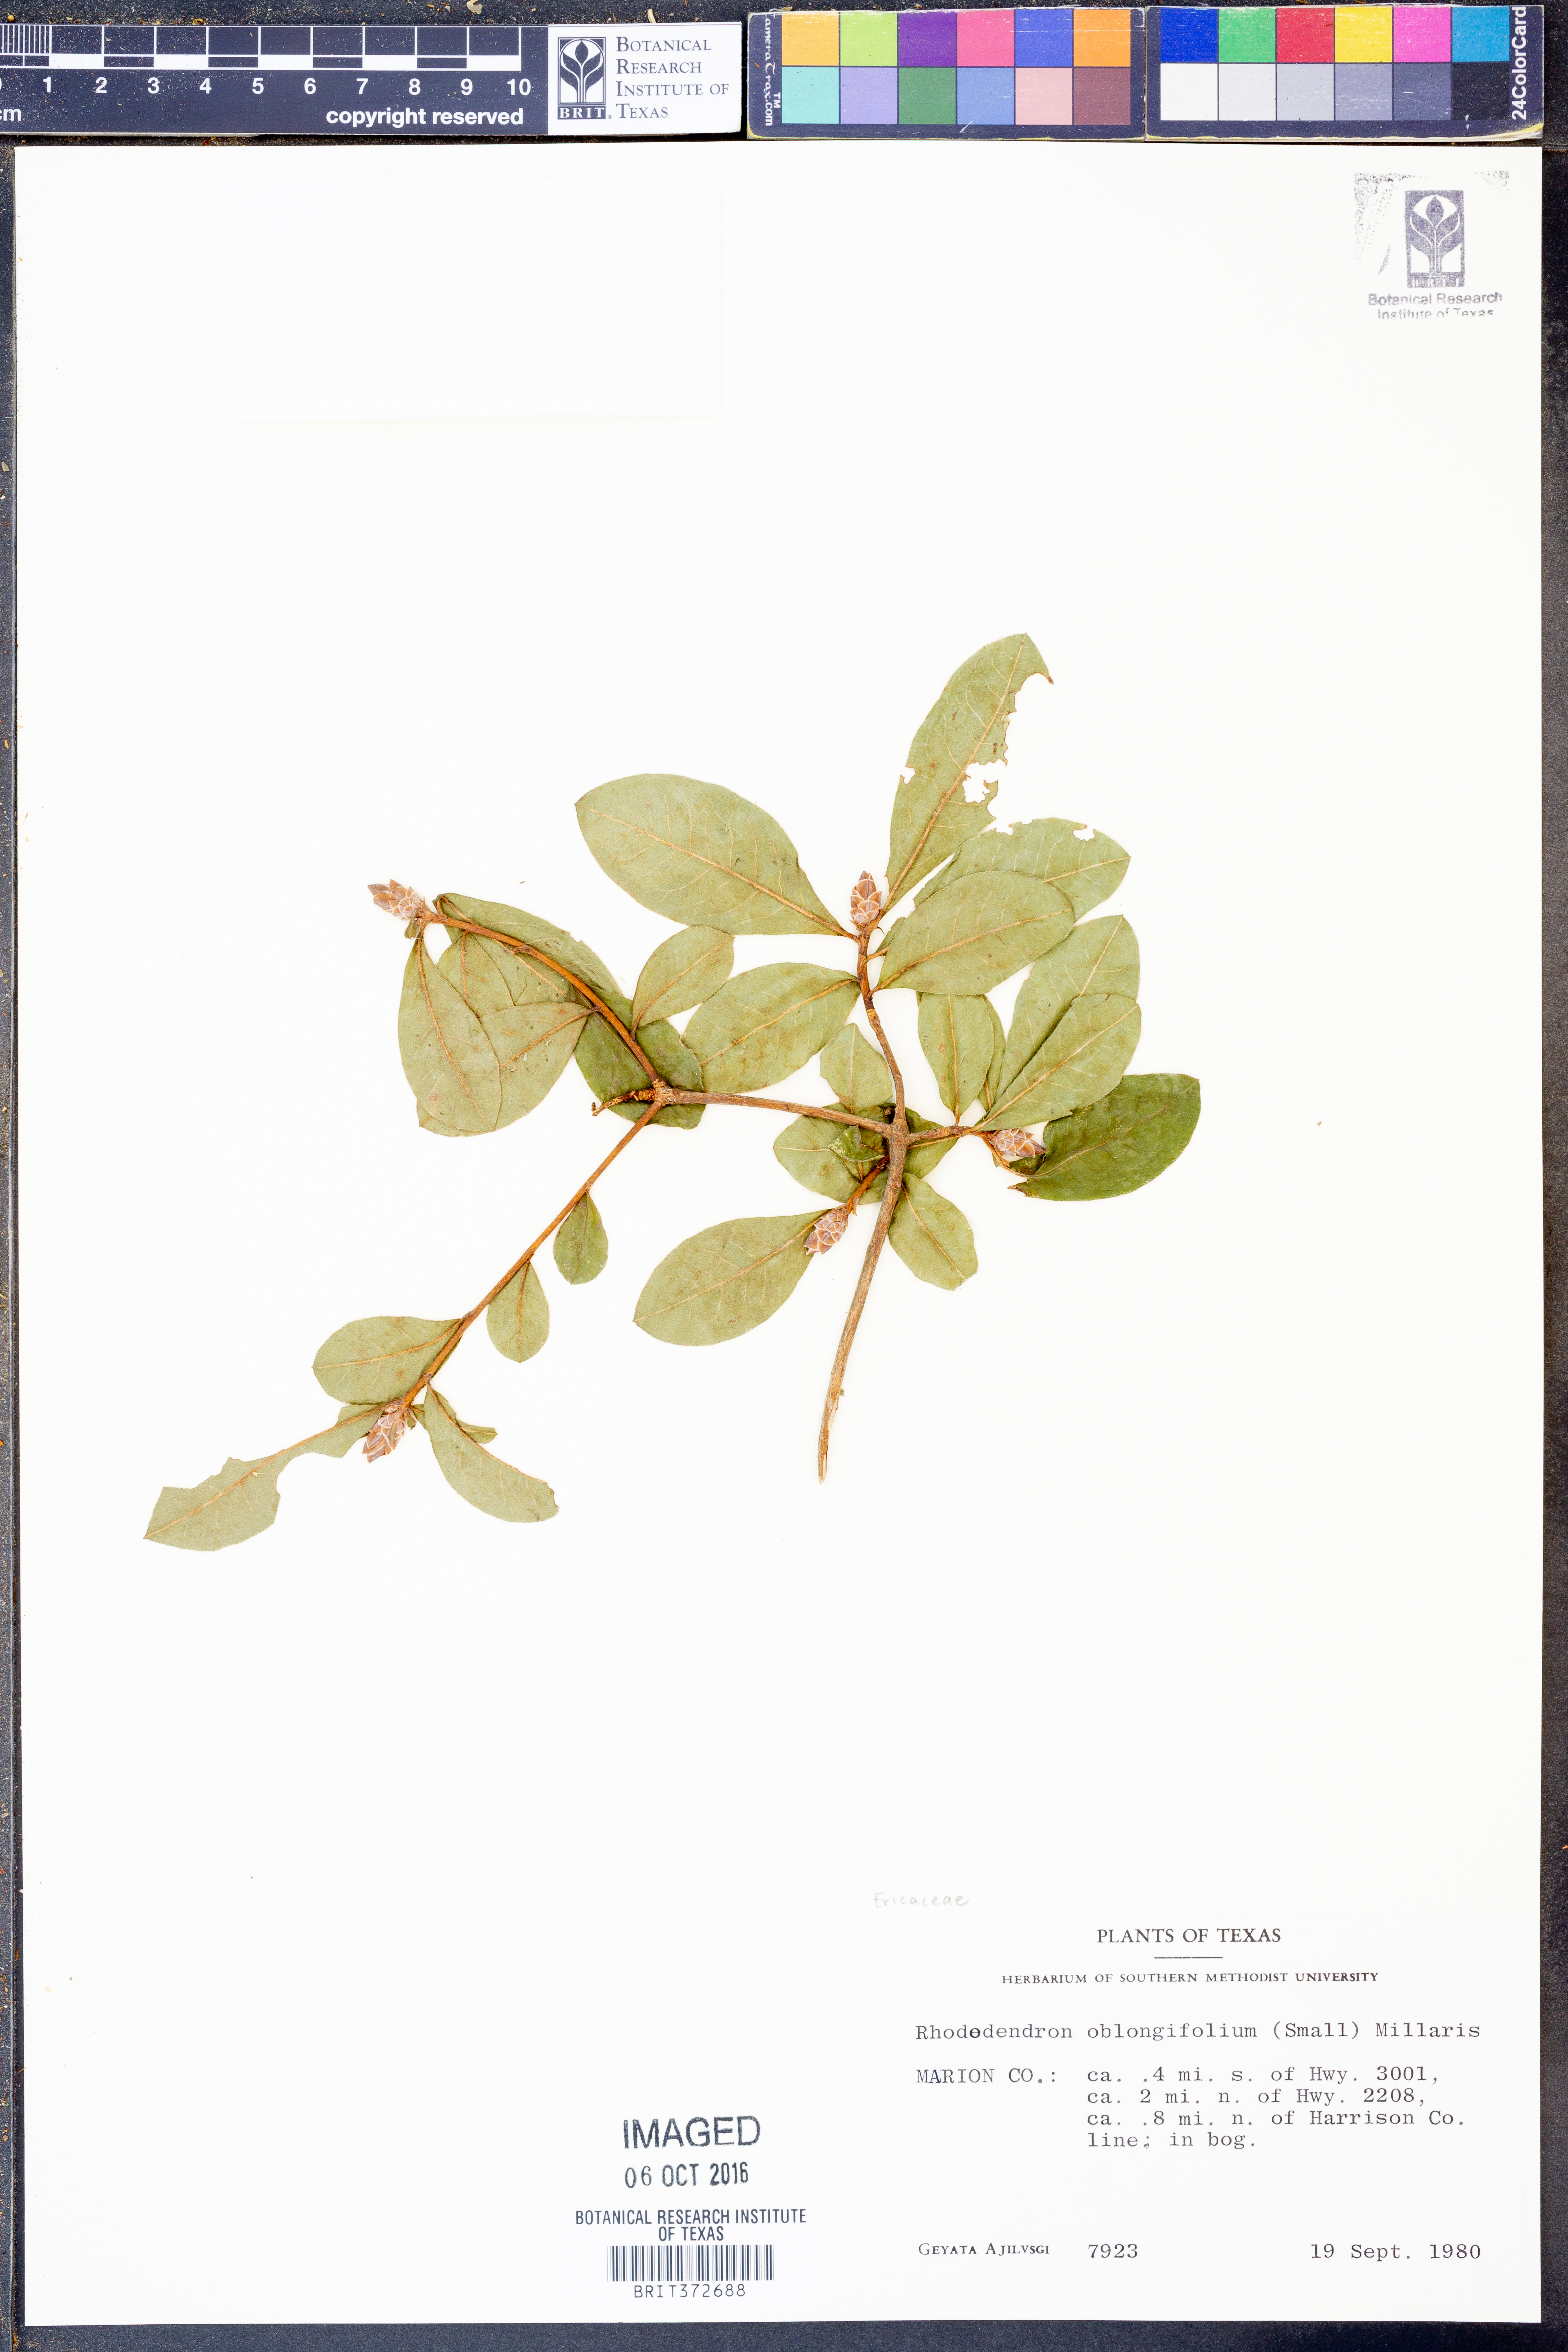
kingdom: Plantae
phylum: Tracheophyta
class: Magnoliopsida
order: Ericales
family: Ericaceae
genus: Rhododendron
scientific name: Rhododendron viscosum
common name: Clammy azalea
